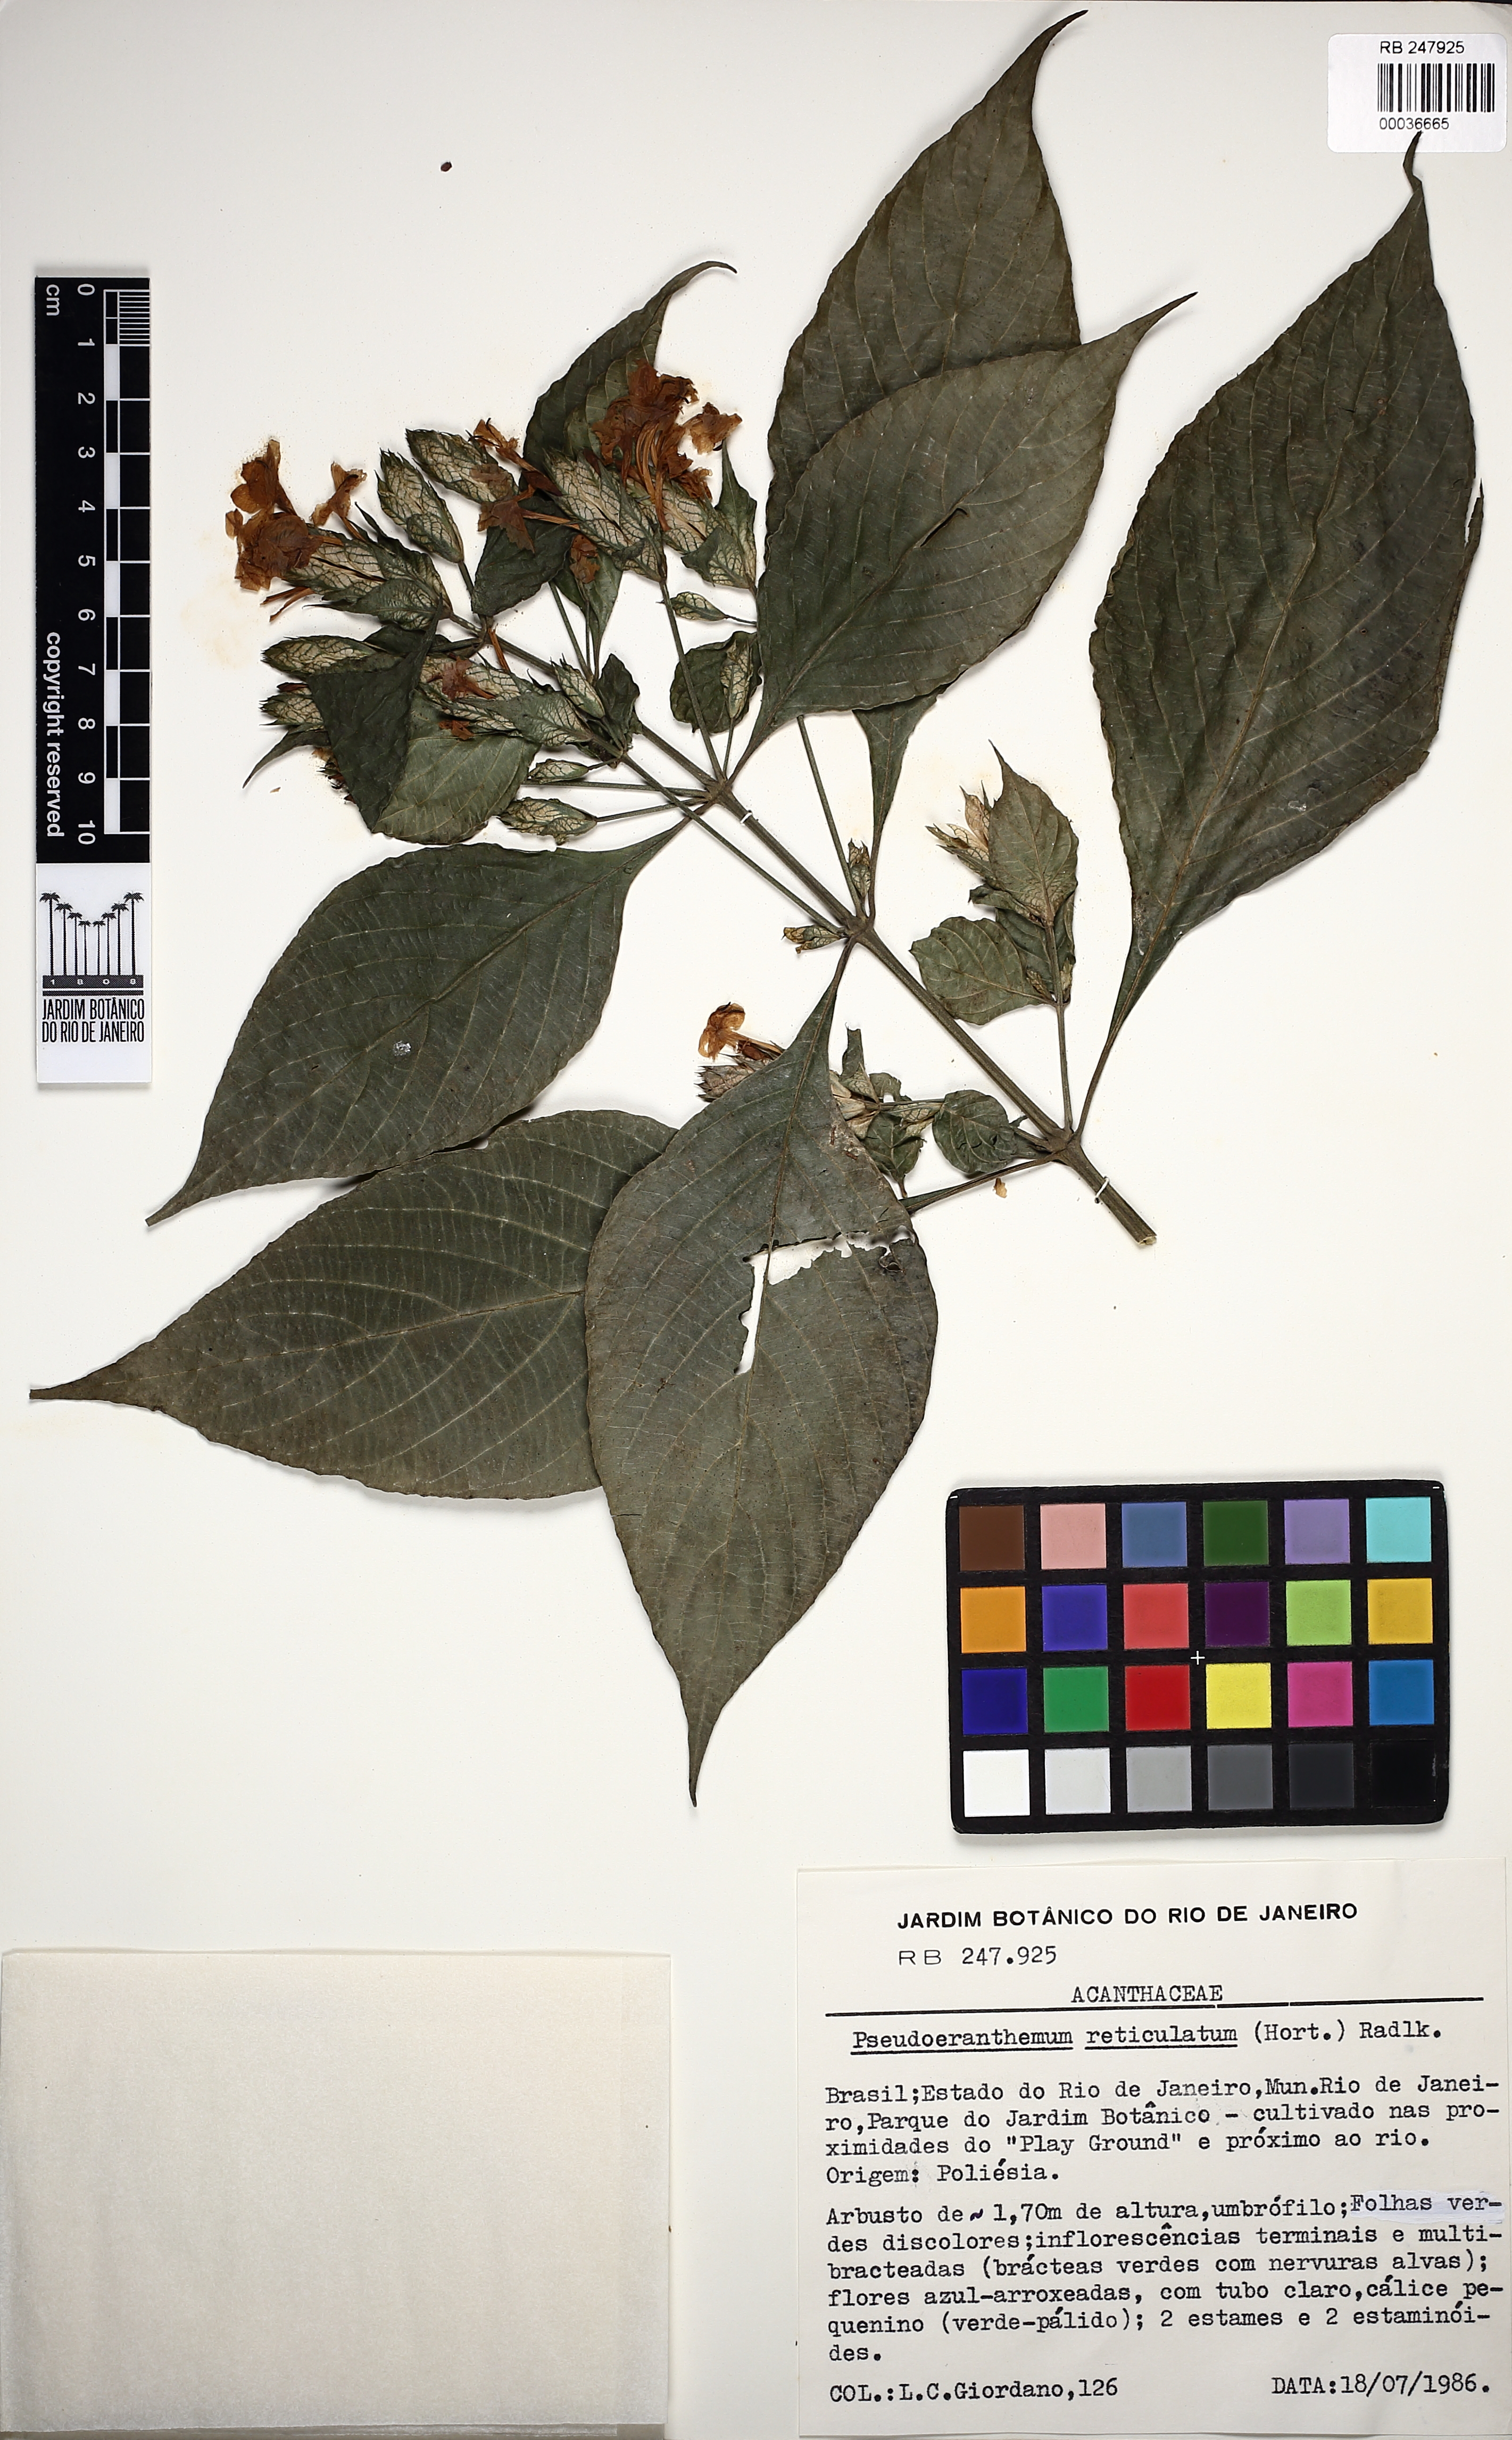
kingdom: Plantae
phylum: Tracheophyta
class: Magnoliopsida
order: Lamiales
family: Acanthaceae
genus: Pseuderanthemum
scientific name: Pseuderanthemum maculatum
